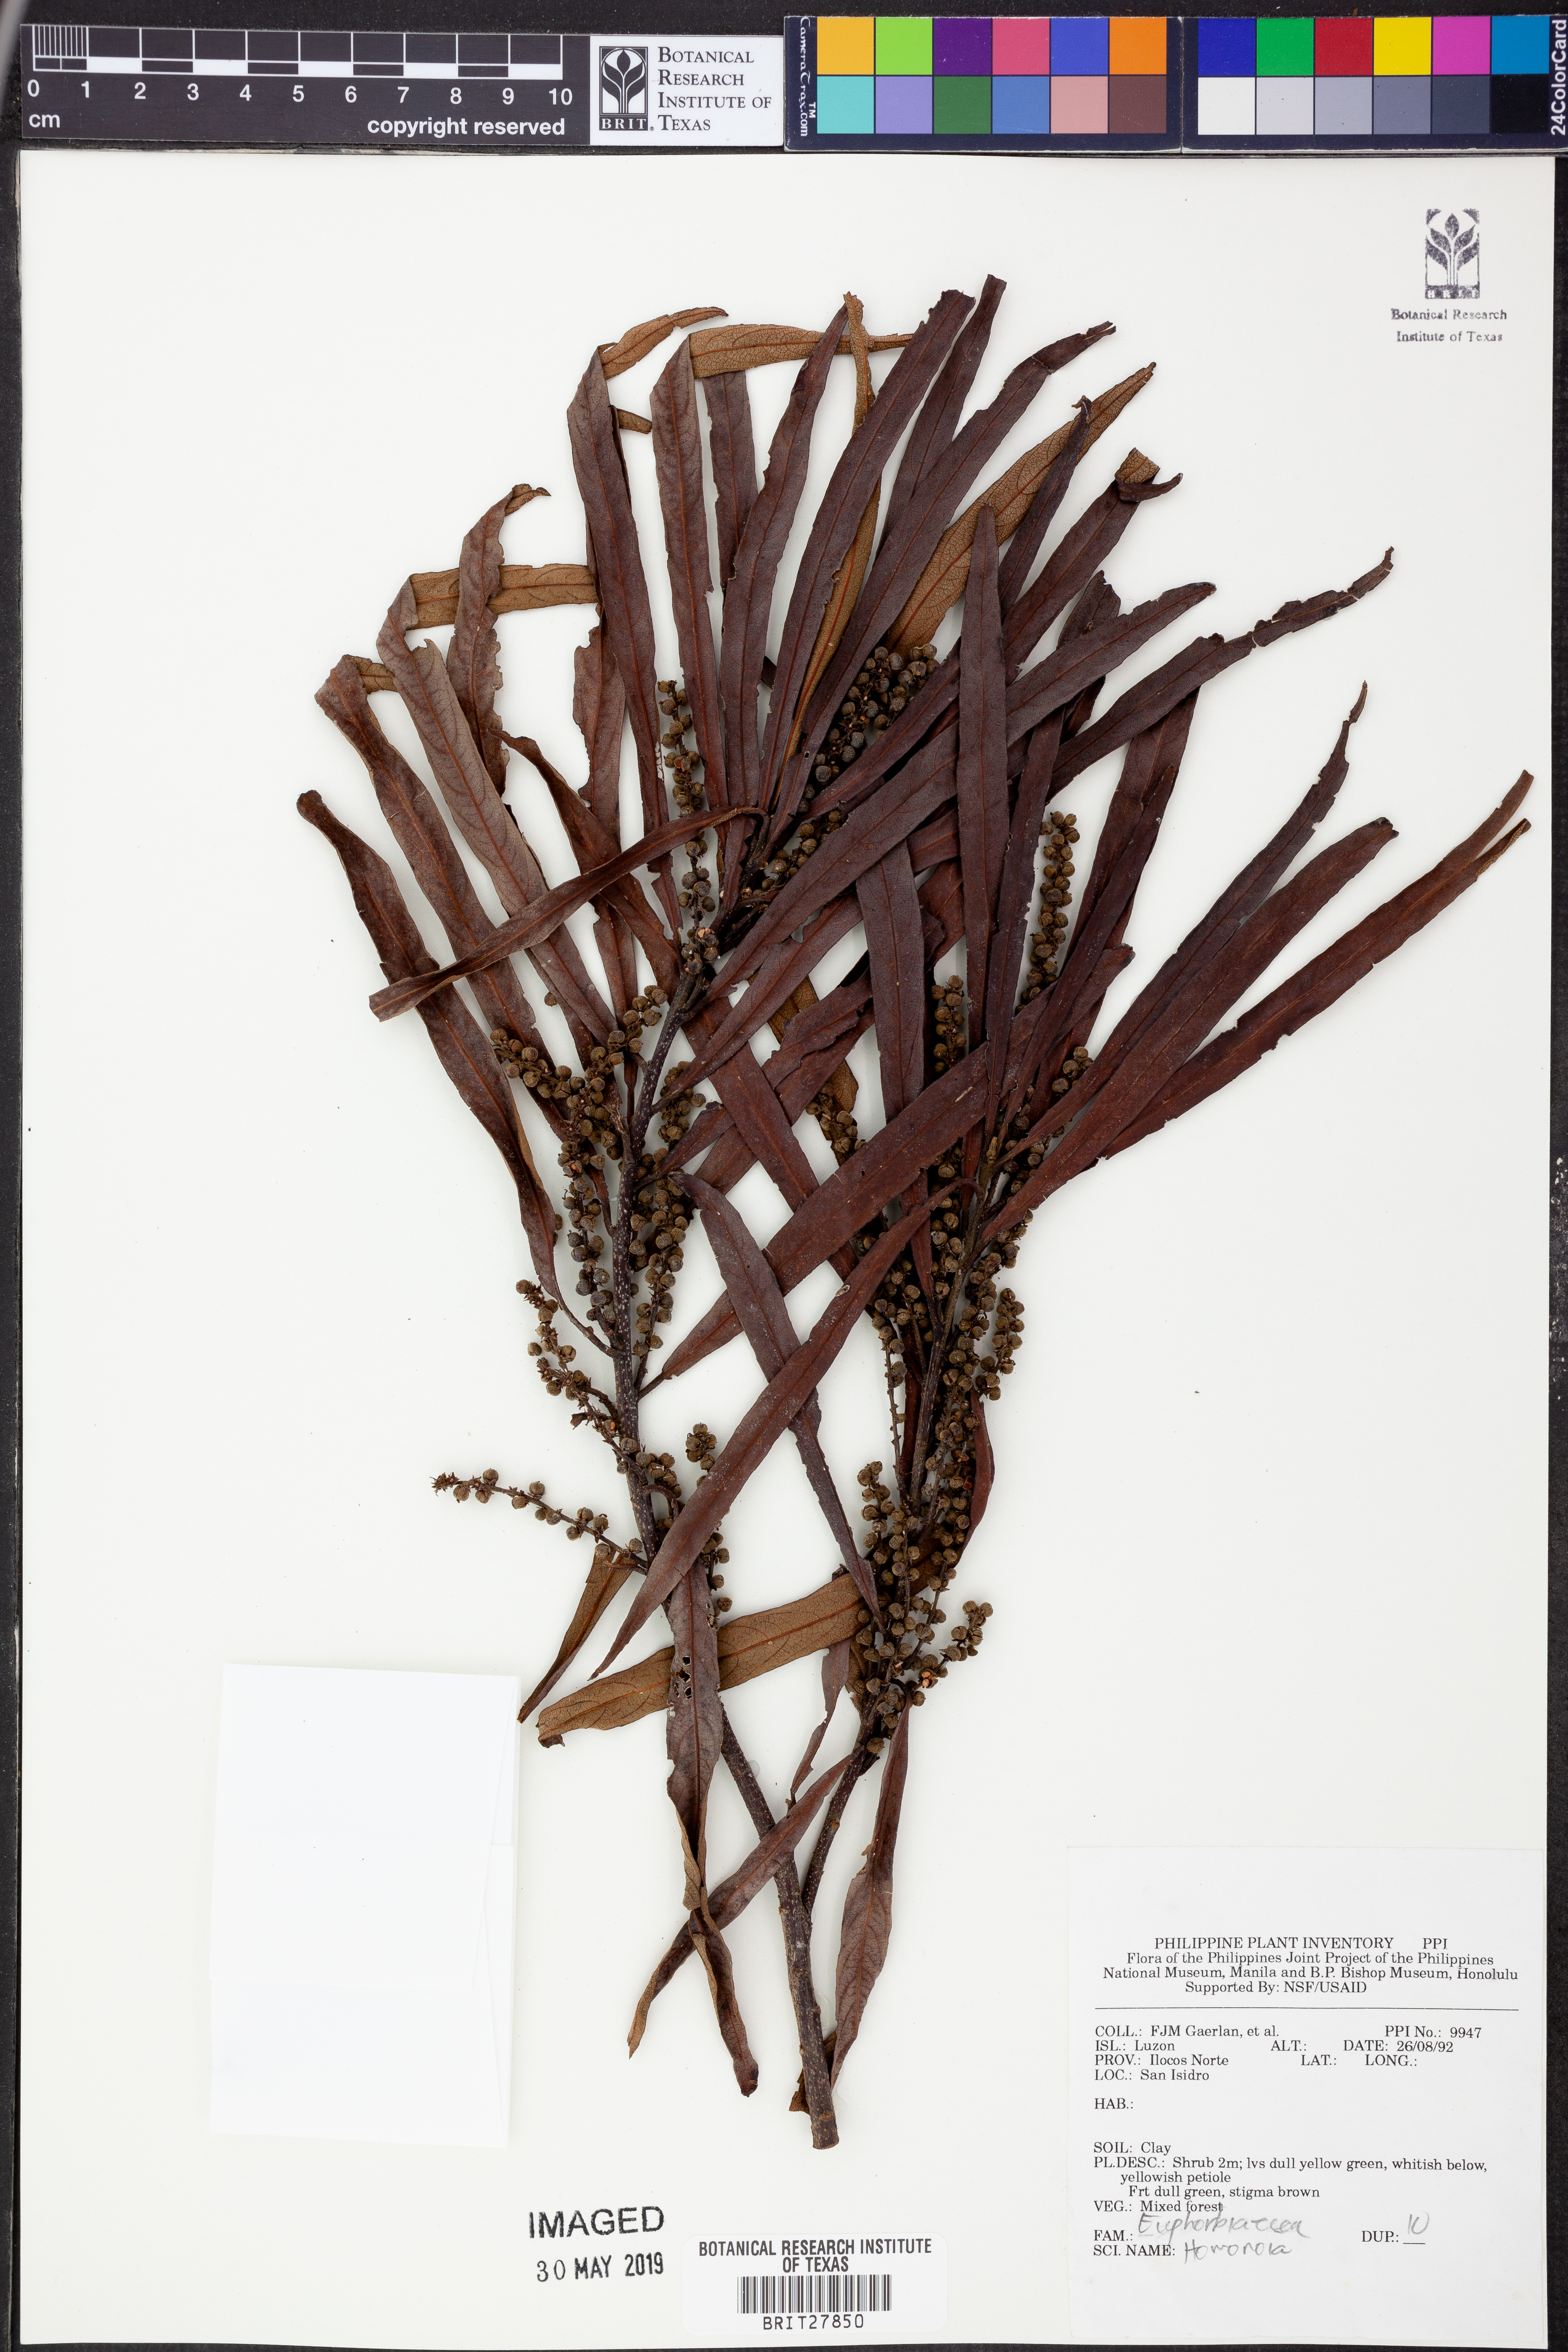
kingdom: Plantae
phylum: Tracheophyta
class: Magnoliopsida
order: Malpighiales
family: Euphorbiaceae
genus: Homonoia
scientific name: Homonoia
